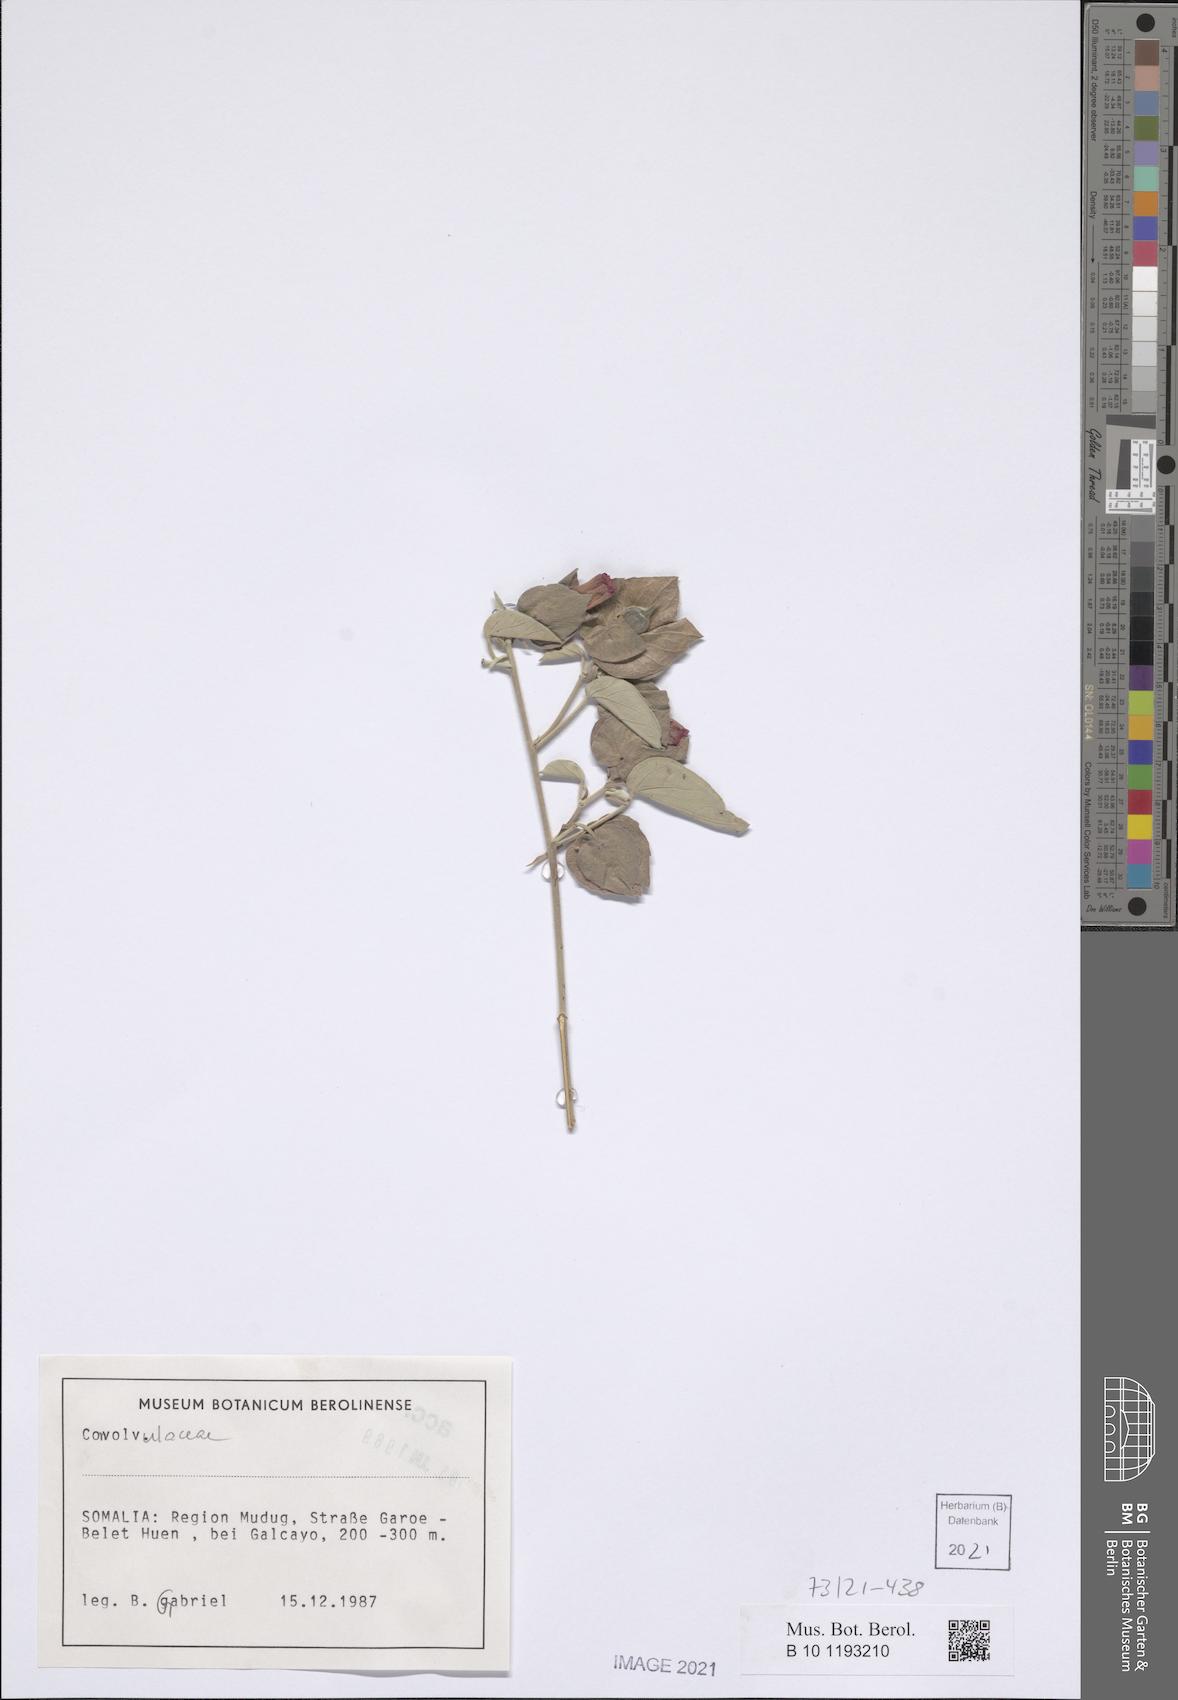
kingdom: Plantae
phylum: Tracheophyta
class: Magnoliopsida
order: Malvales
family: Malvaceae
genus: Gossypium
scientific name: Gossypium bricchettii
